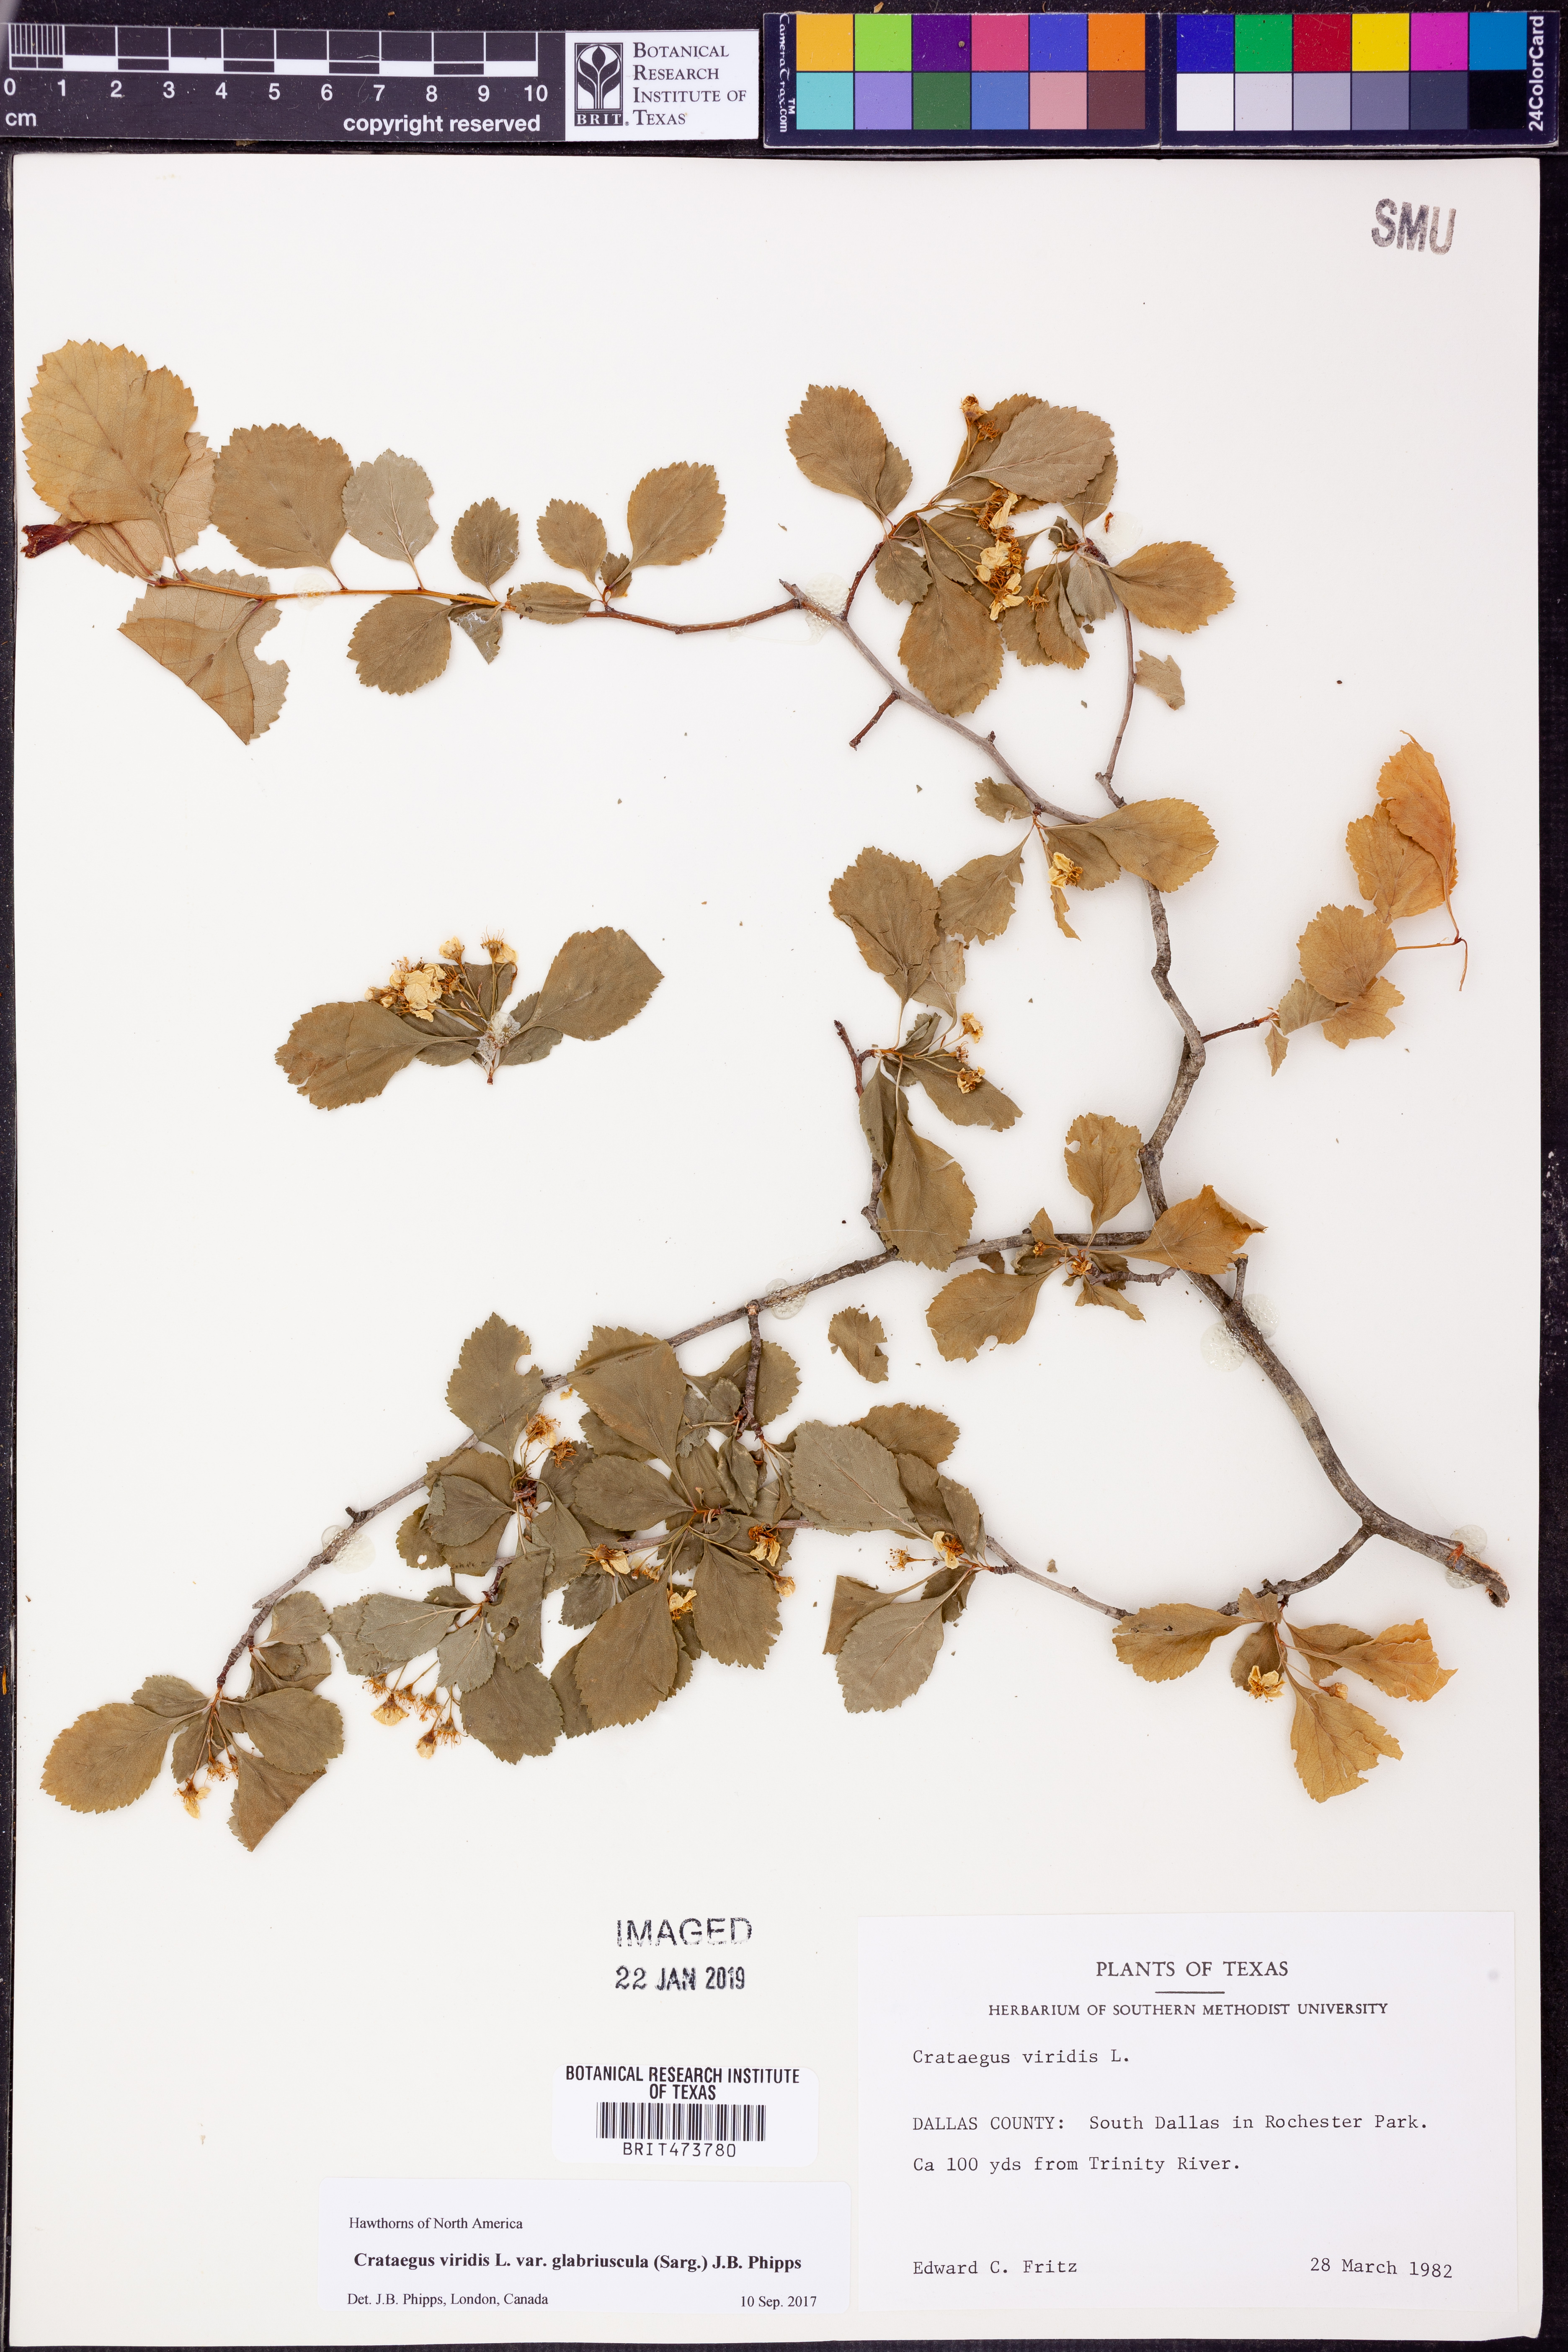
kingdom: Plantae
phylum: Tracheophyta
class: Magnoliopsida
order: Rosales
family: Rosaceae
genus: Crataegus
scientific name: Crataegus viridis
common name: Southernthorn
